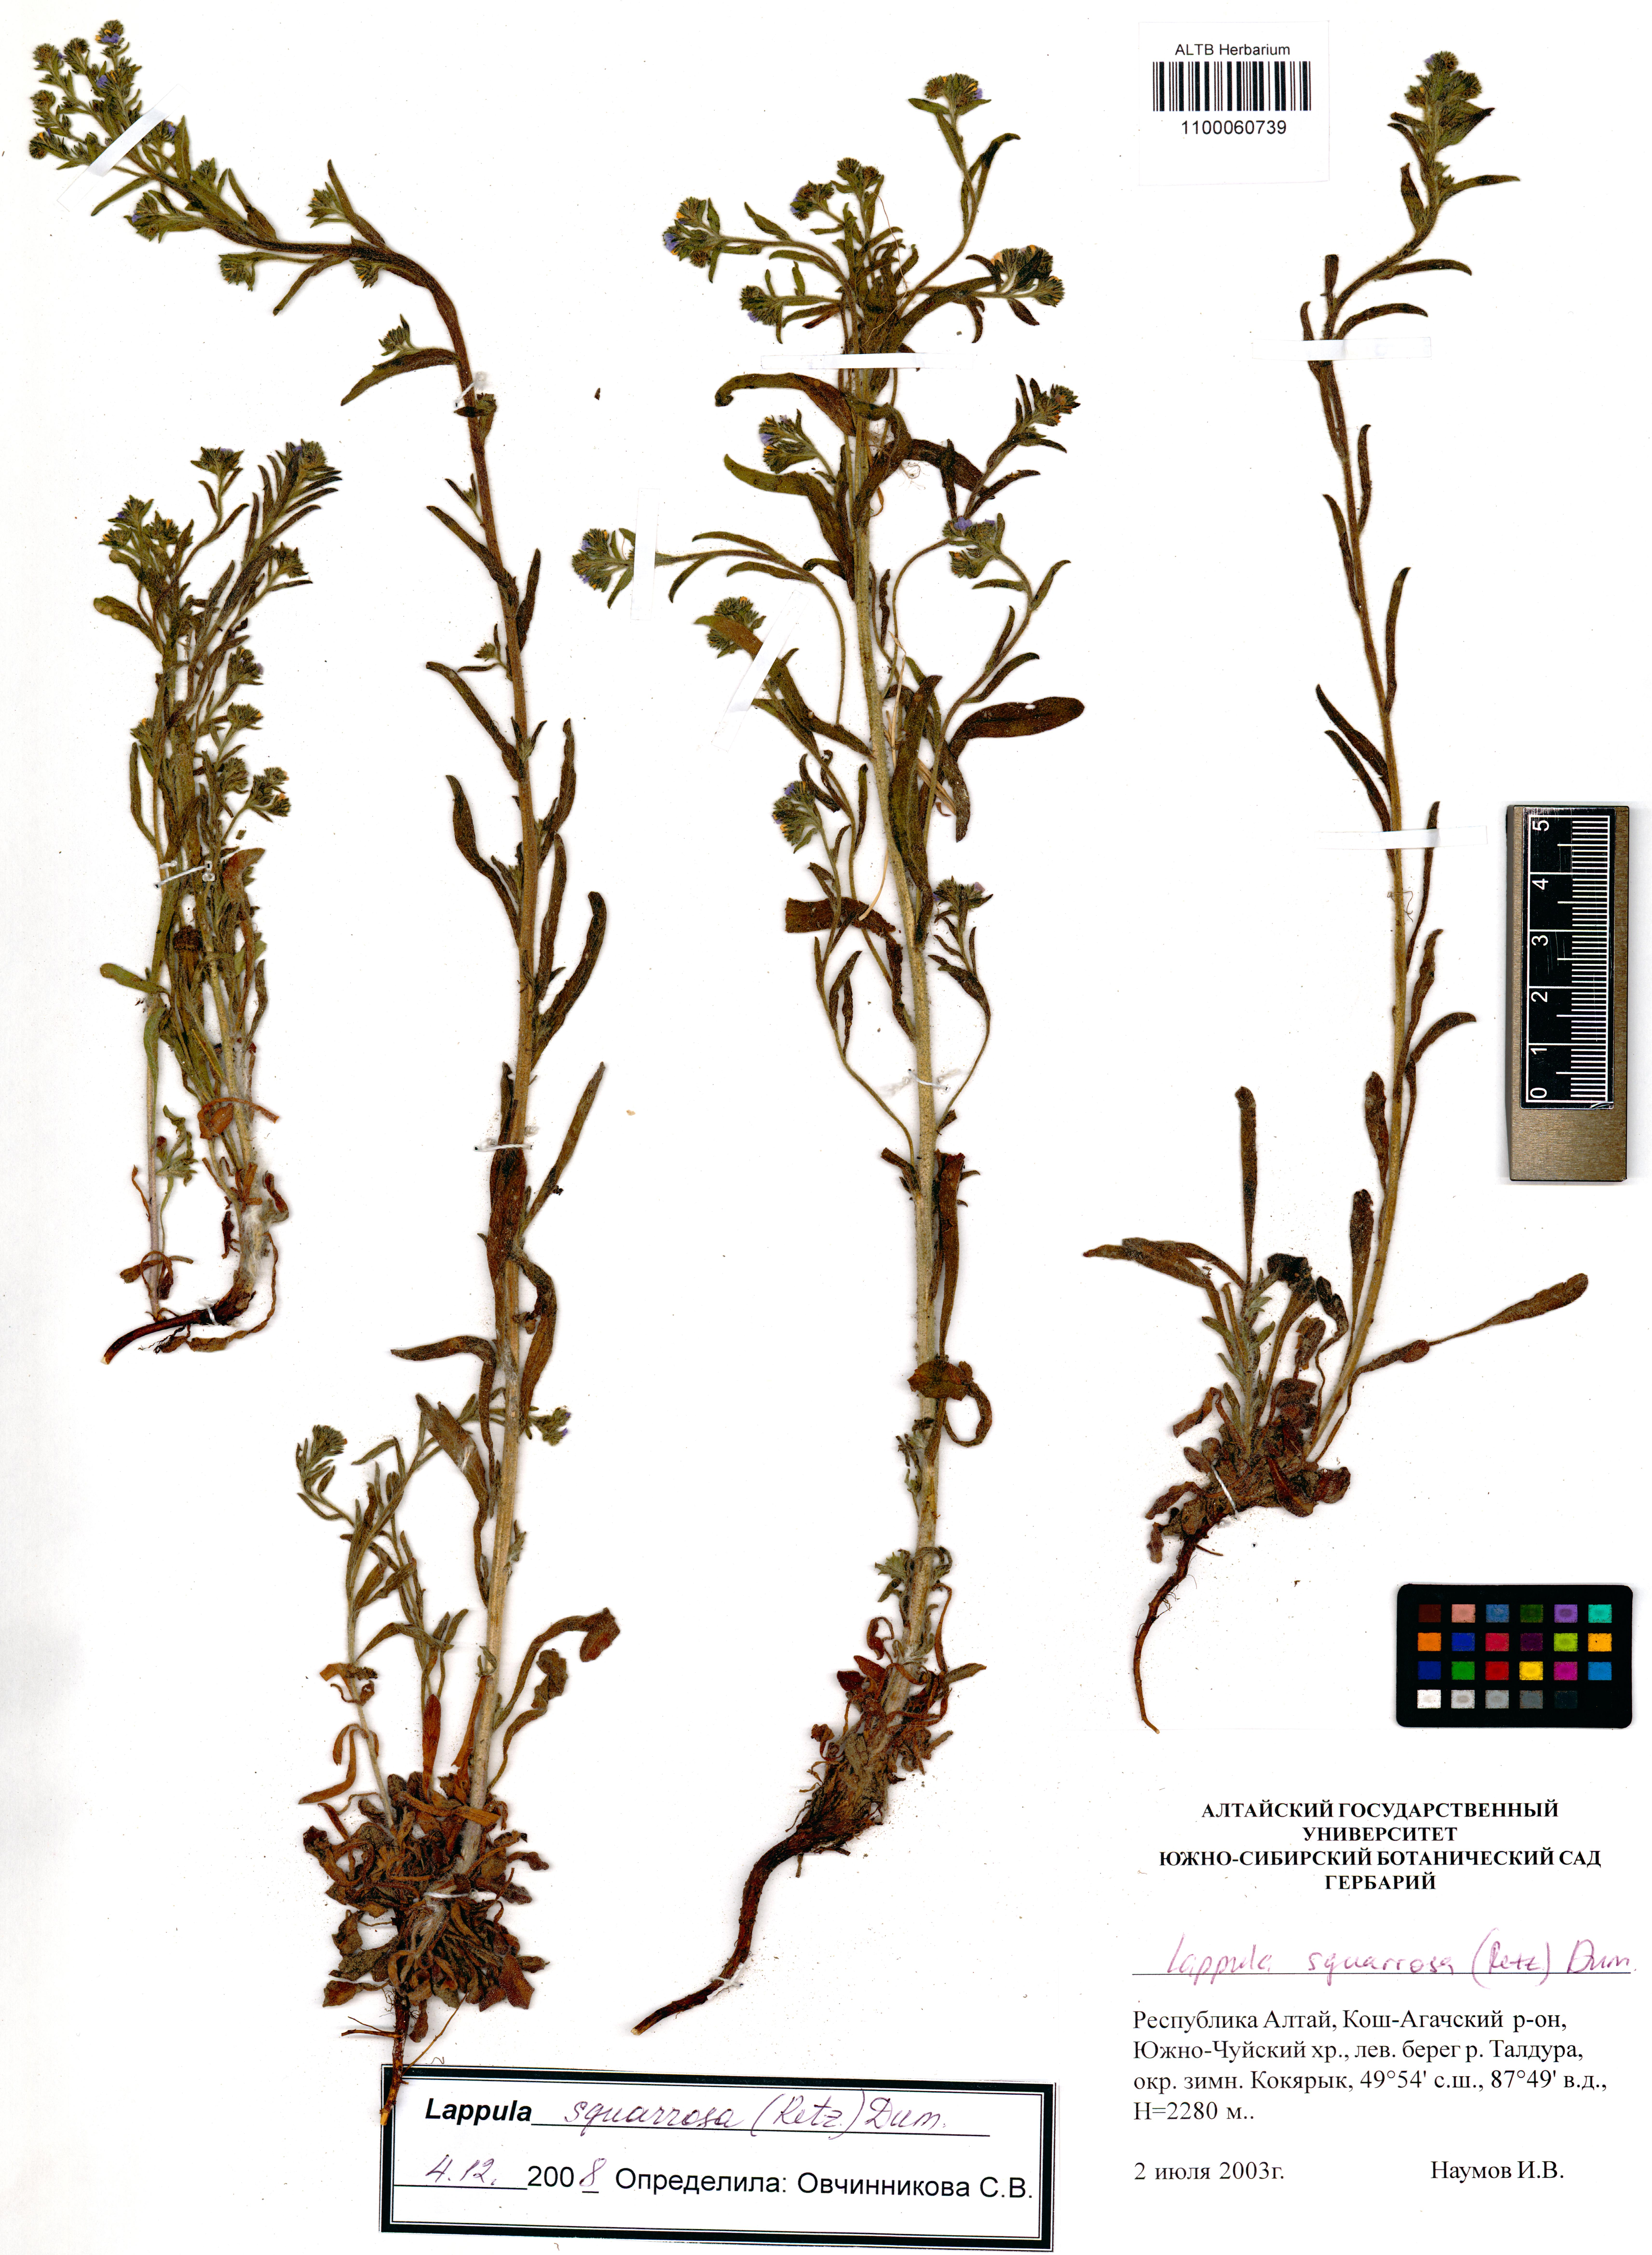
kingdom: Plantae
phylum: Tracheophyta
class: Magnoliopsida
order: Boraginales
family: Boraginaceae
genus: Lappula
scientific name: Lappula squarrosa
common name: European stickseed
